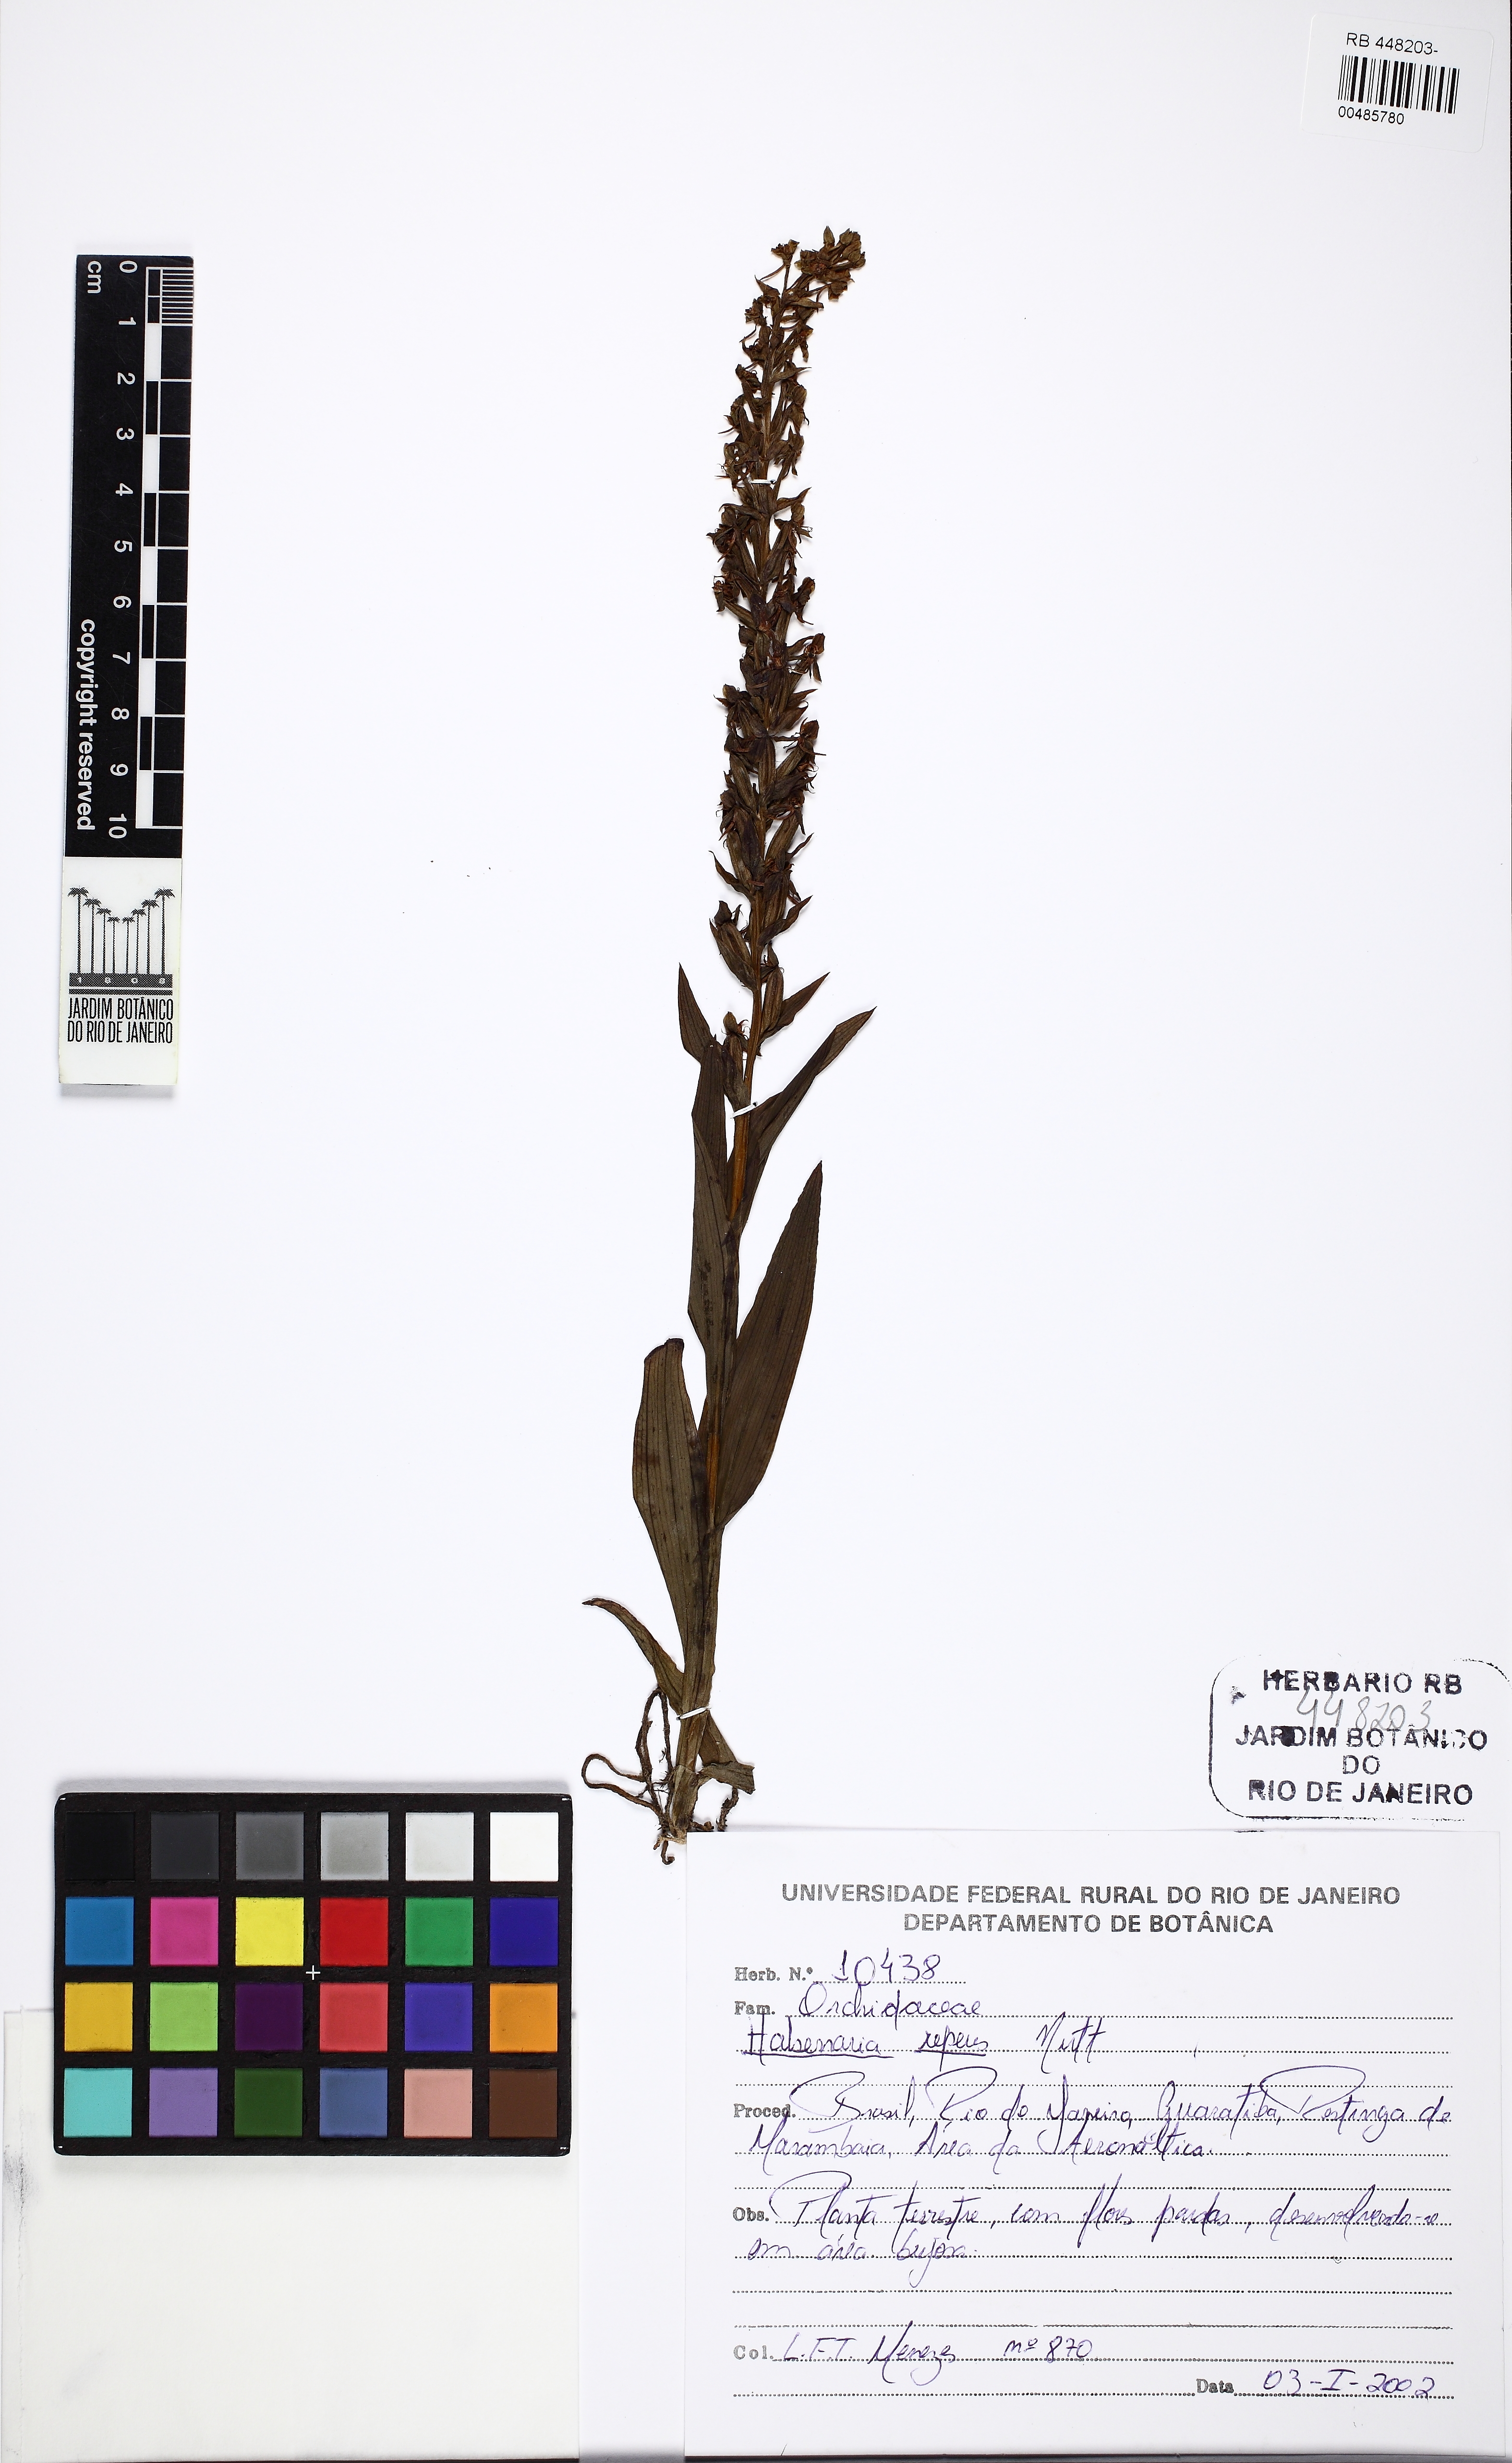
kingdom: Plantae
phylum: Tracheophyta
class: Liliopsida
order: Asparagales
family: Orchidaceae
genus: Habenaria
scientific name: Habenaria repens
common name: Water orchid
